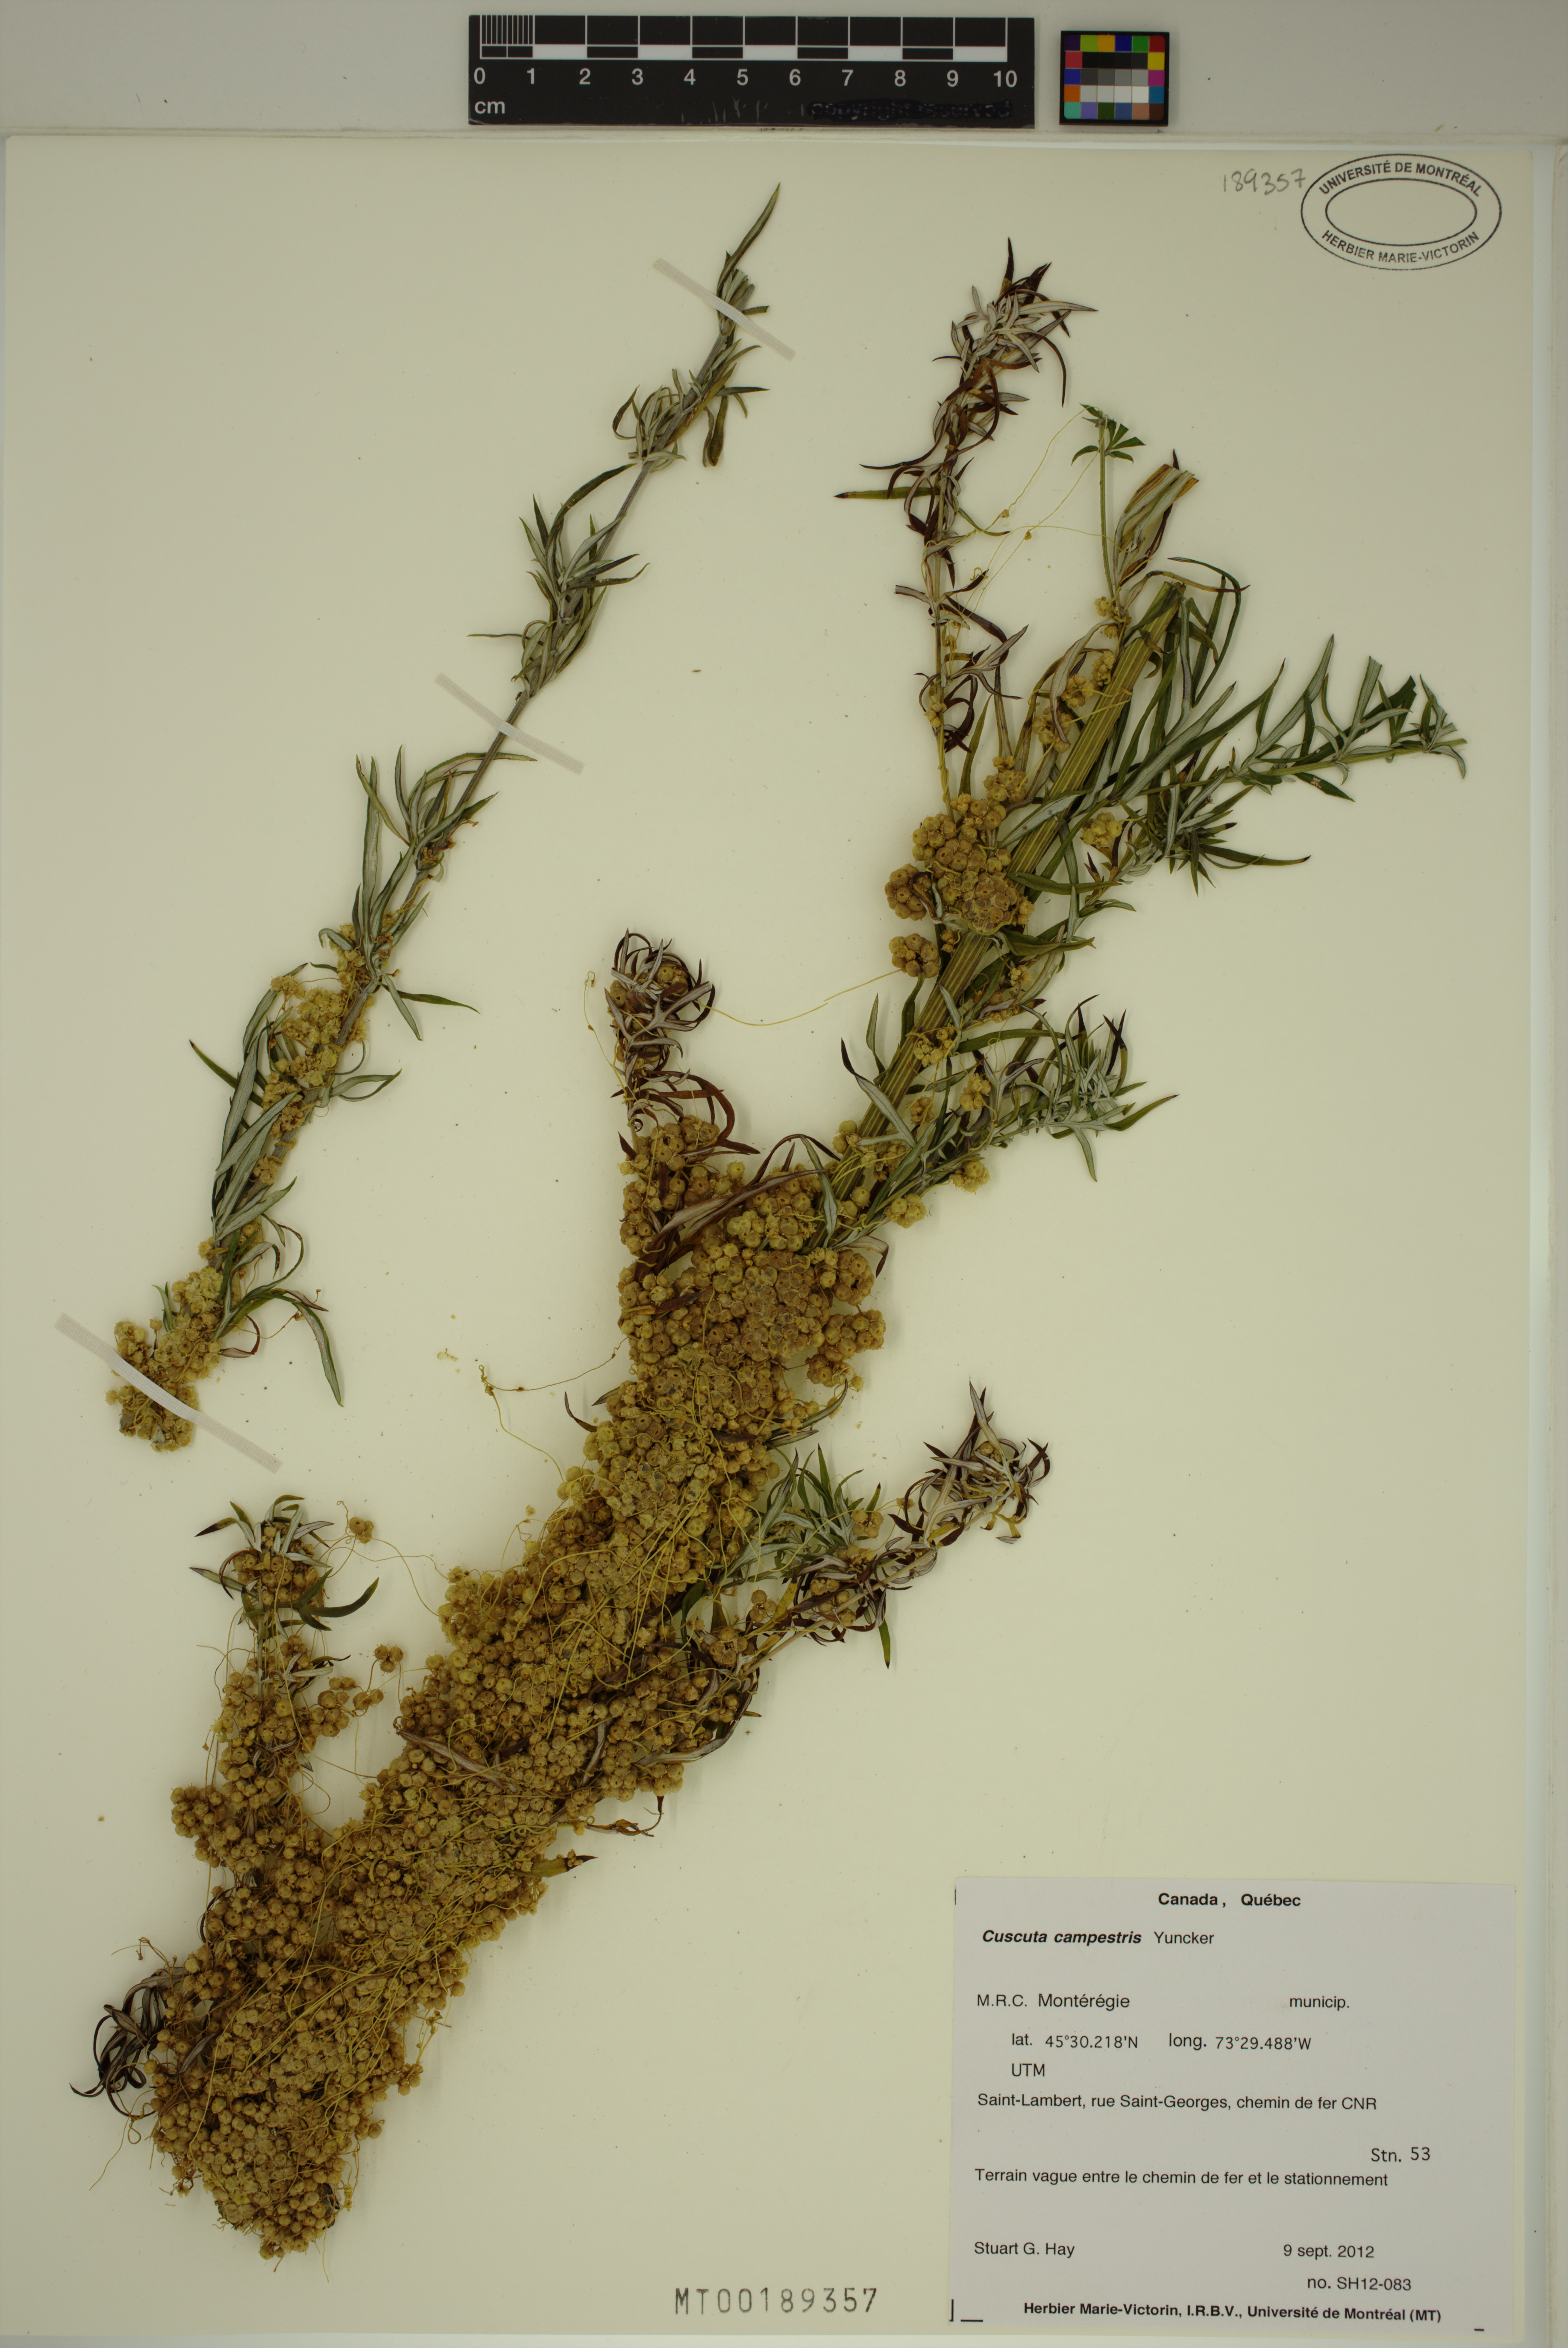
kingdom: Plantae
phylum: Tracheophyta
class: Magnoliopsida
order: Solanales
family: Convolvulaceae
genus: Cuscuta
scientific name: Cuscuta campestris
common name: Yellow dodder
